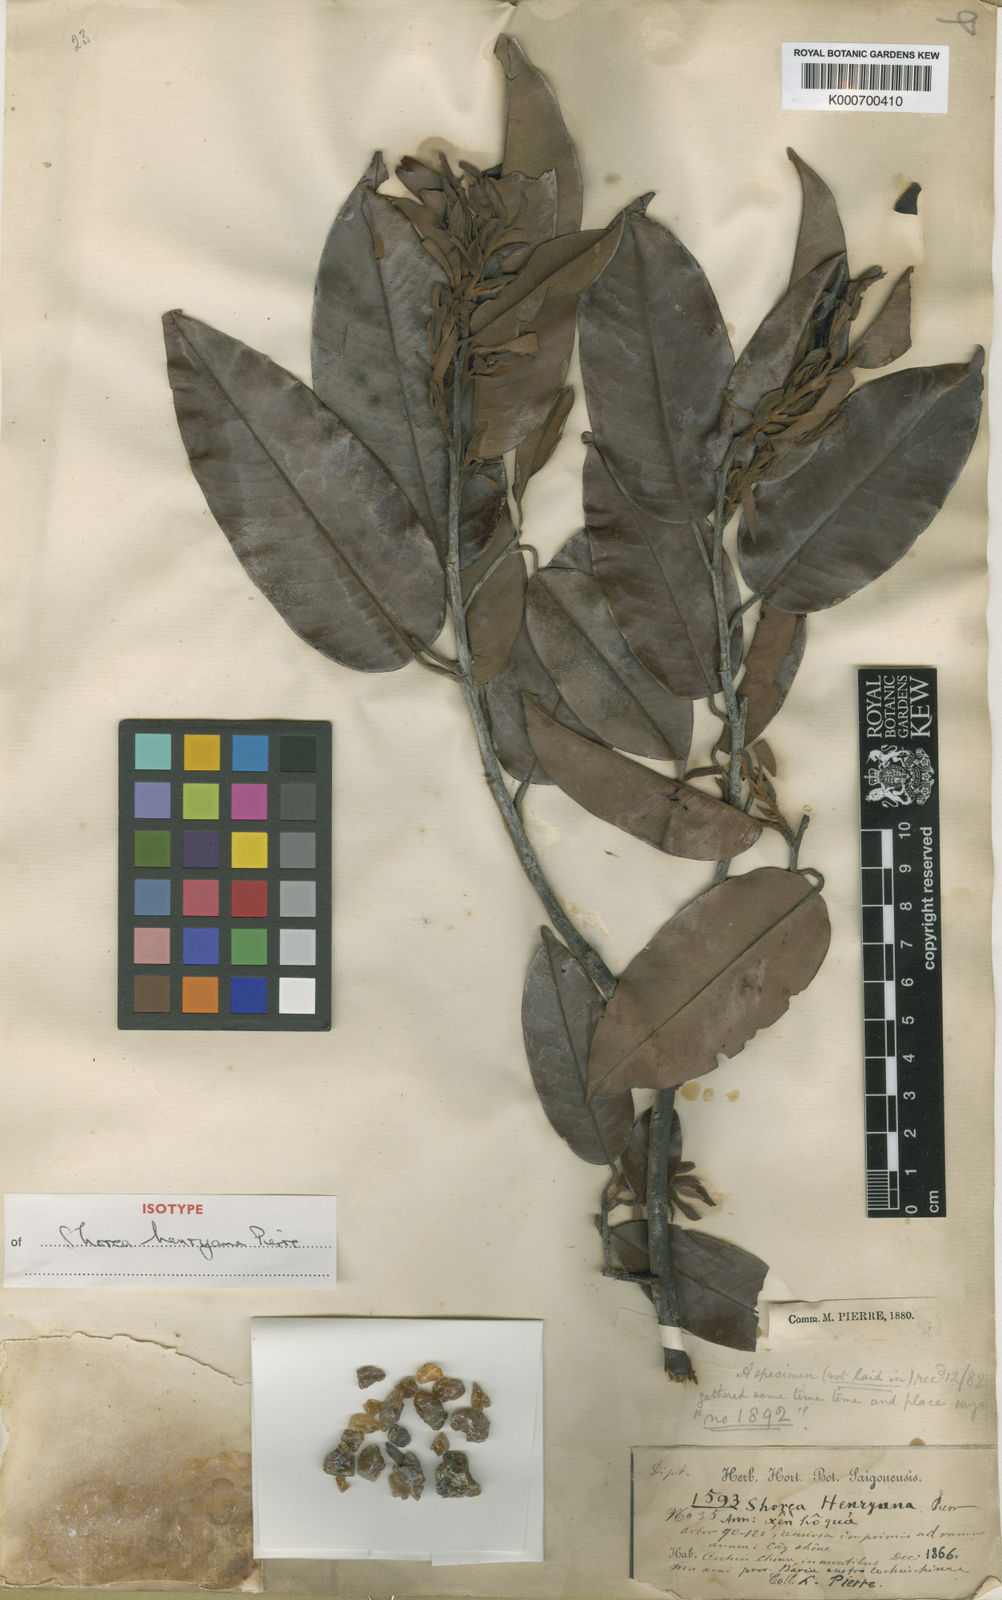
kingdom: Plantae
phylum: Tracheophyta
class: Magnoliopsida
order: Malvales
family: Dipterocarpaceae
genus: Shorea
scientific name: Shorea
